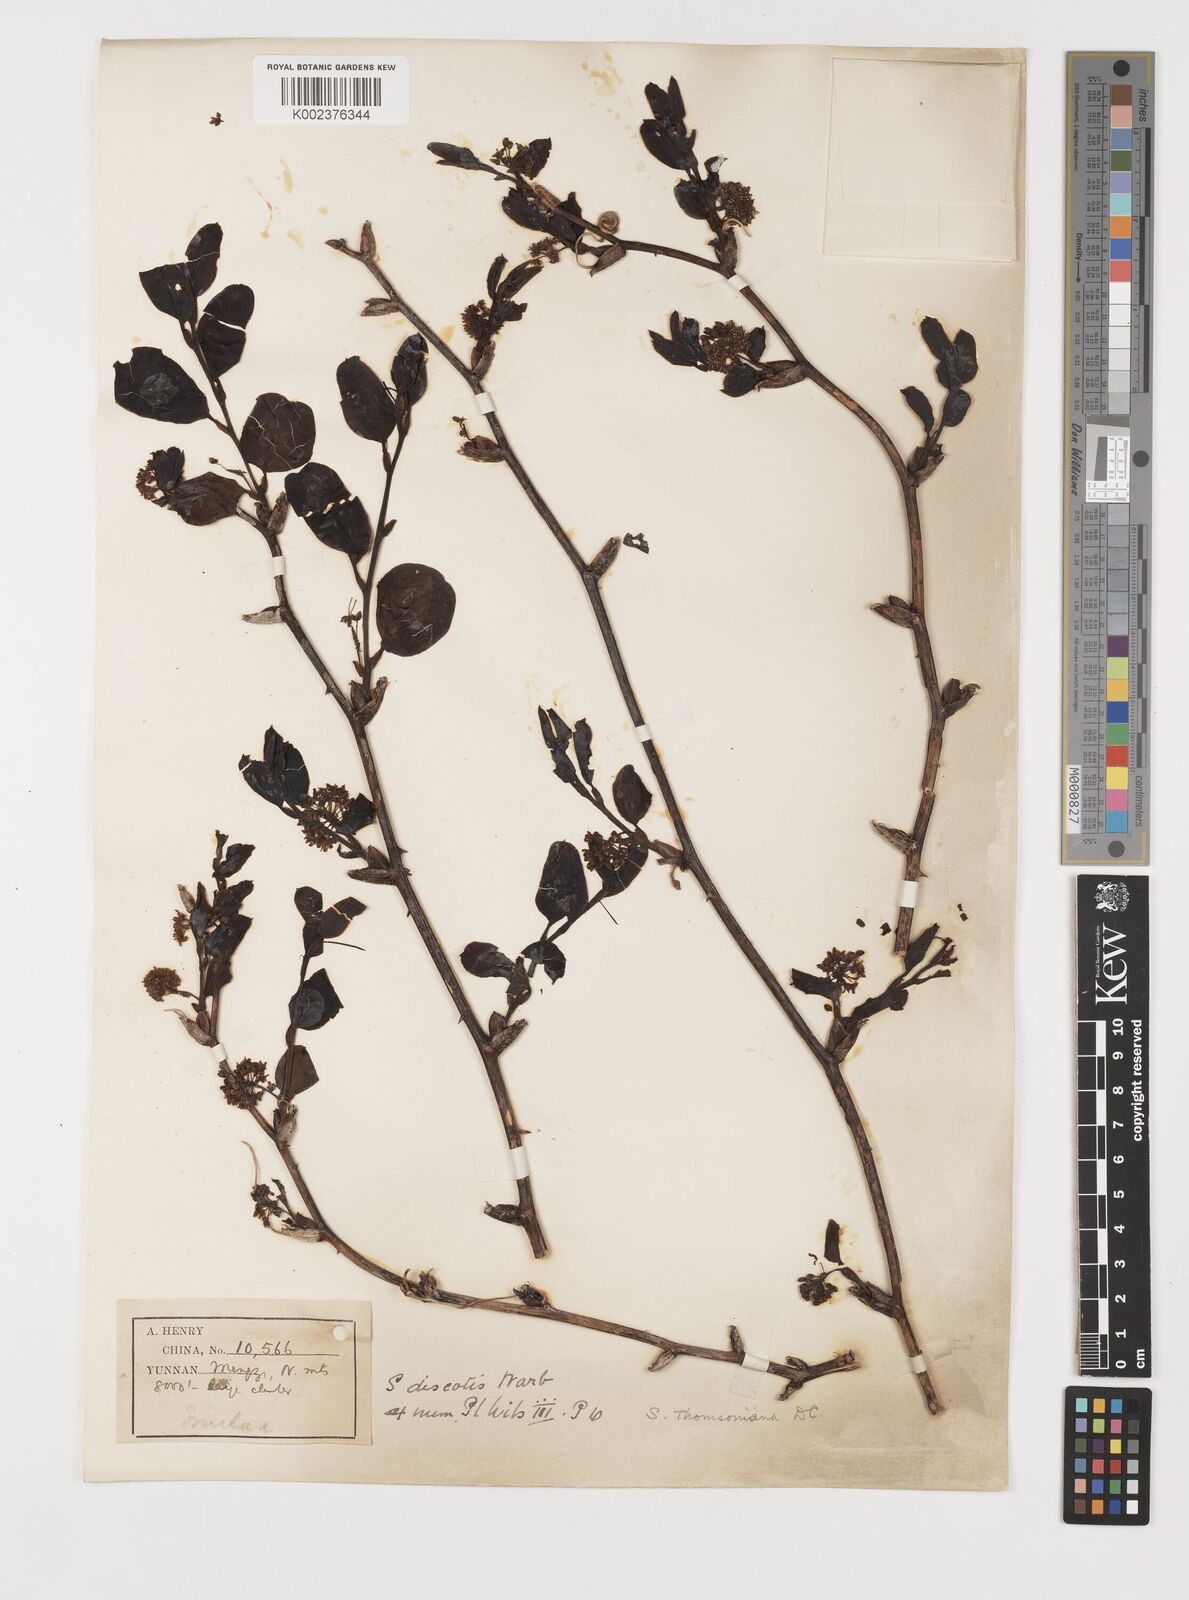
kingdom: Plantae
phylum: Tracheophyta
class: Liliopsida
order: Liliales
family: Smilacaceae
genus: Smilax
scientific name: Smilax china
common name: Chinaroot
